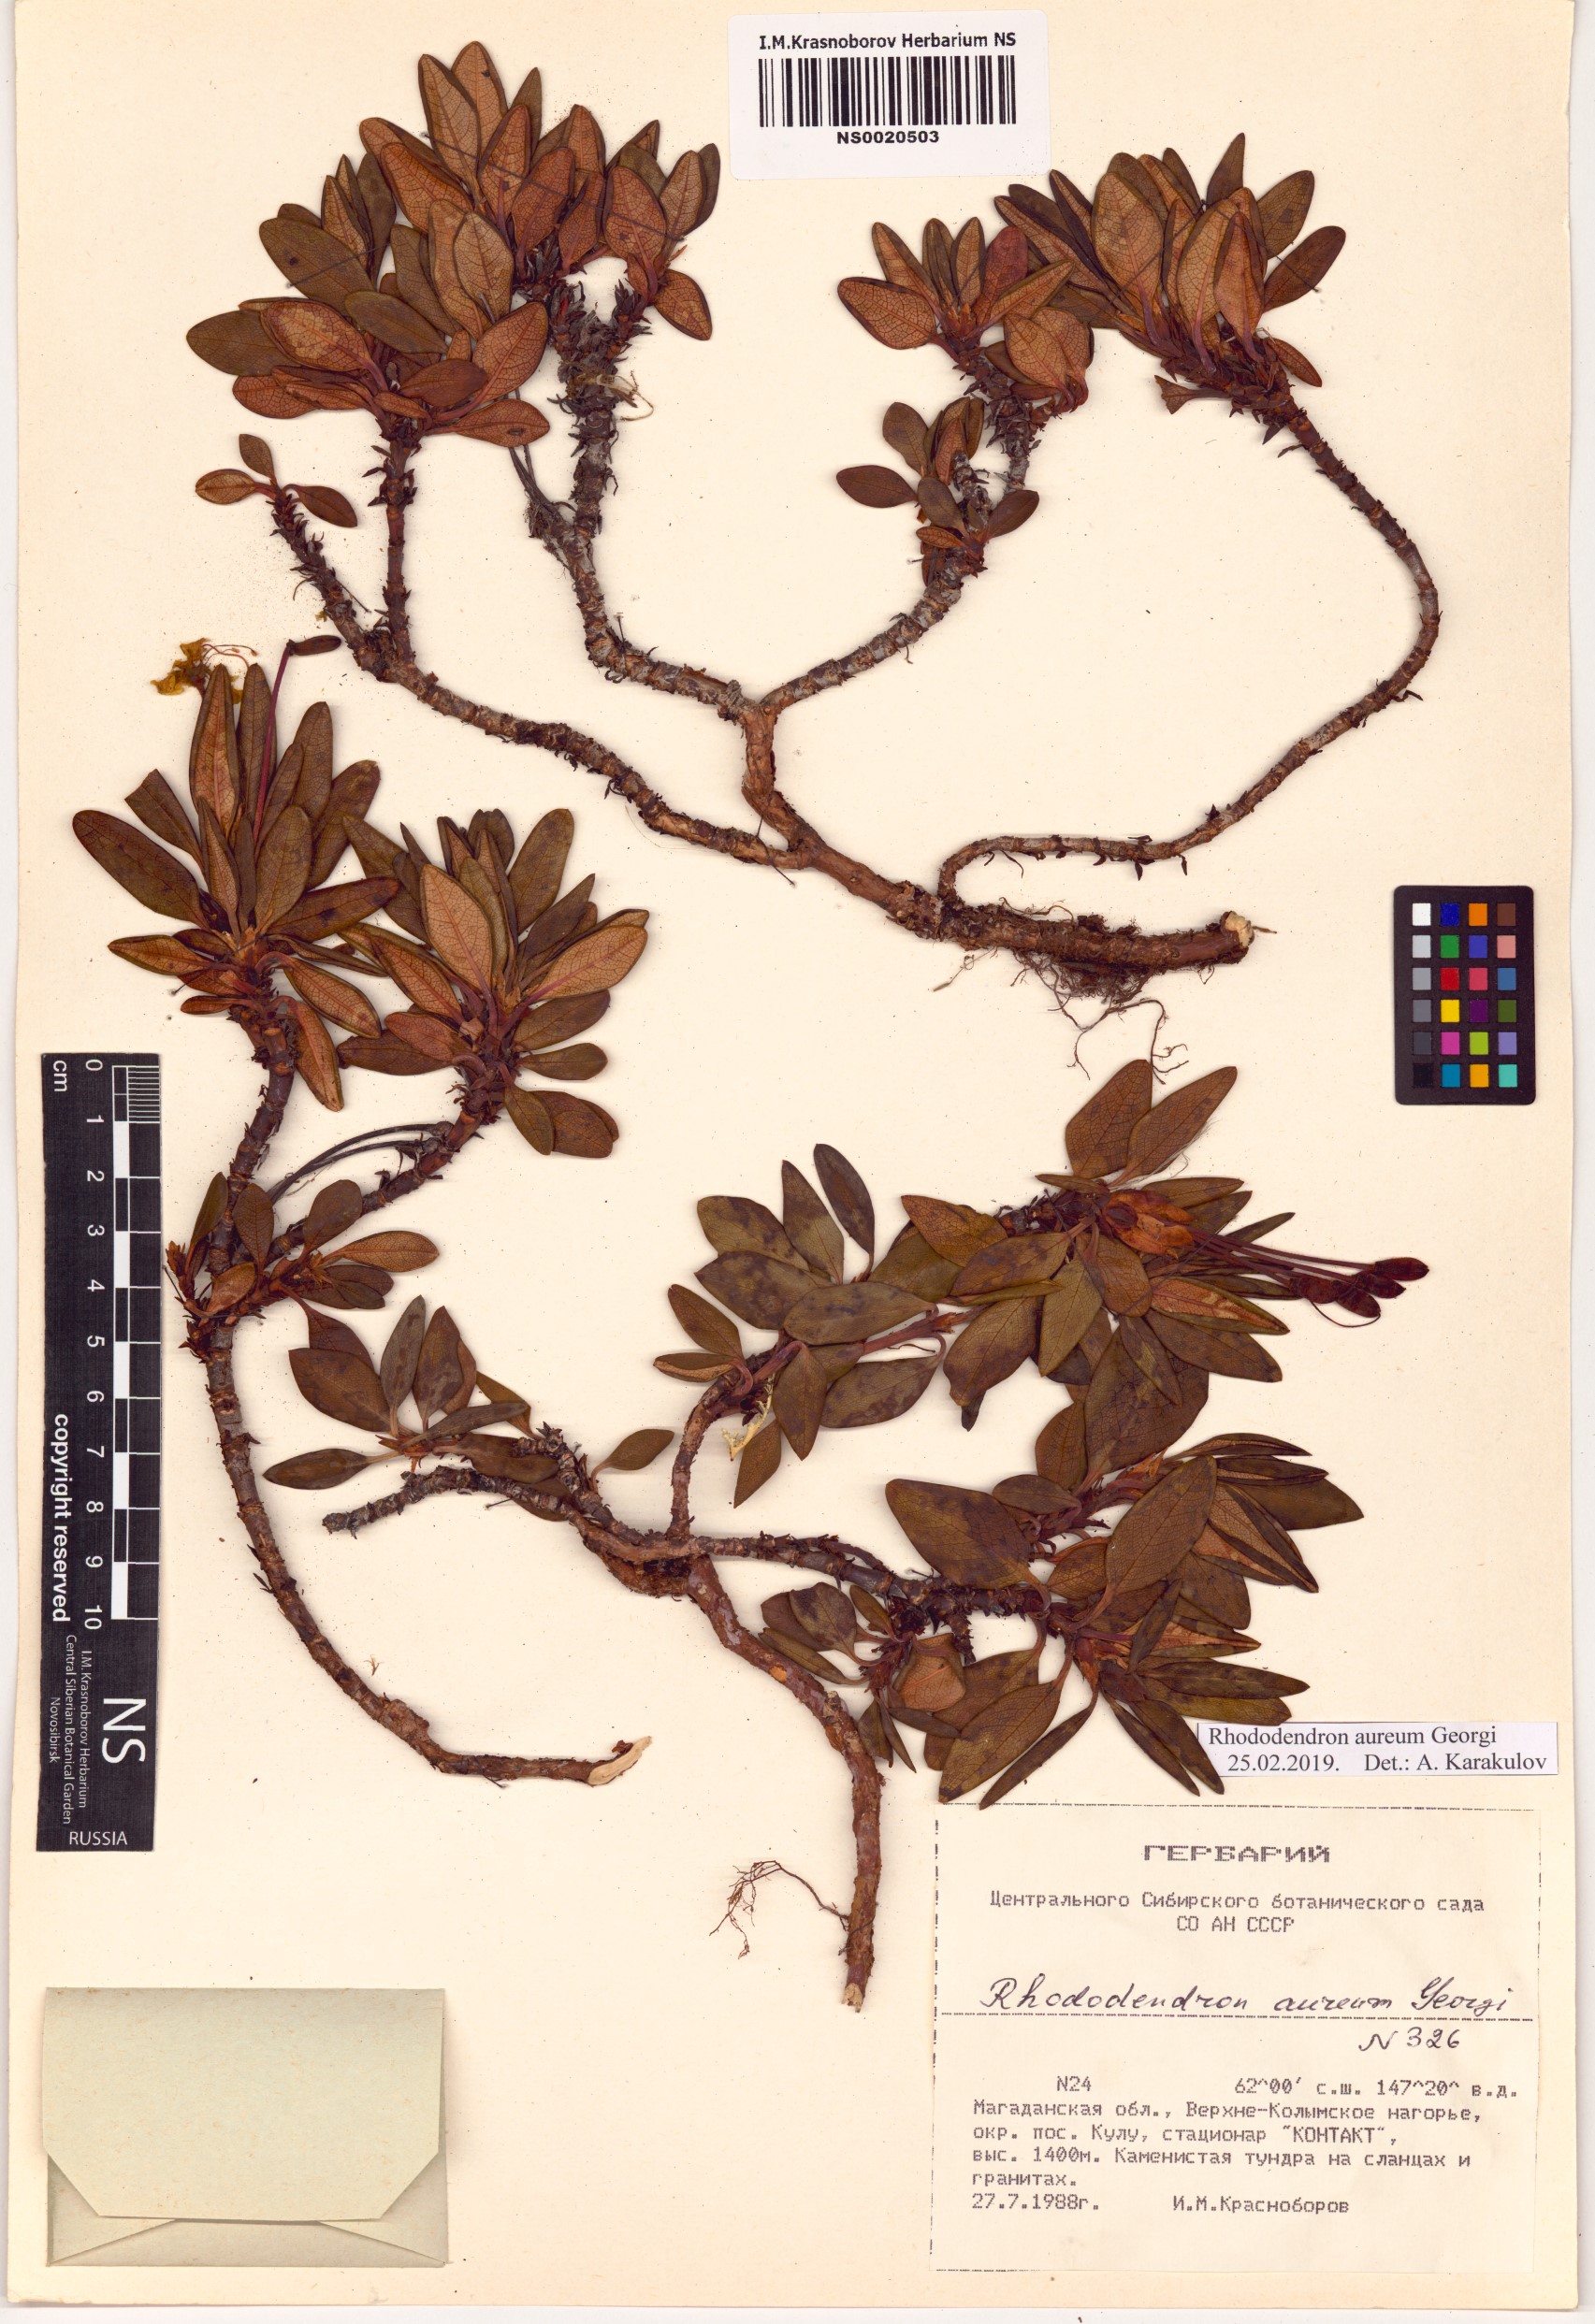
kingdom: Plantae
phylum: Tracheophyta
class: Magnoliopsida
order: Ericales
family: Ericaceae
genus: Rhododendron
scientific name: Rhododendron aureum
